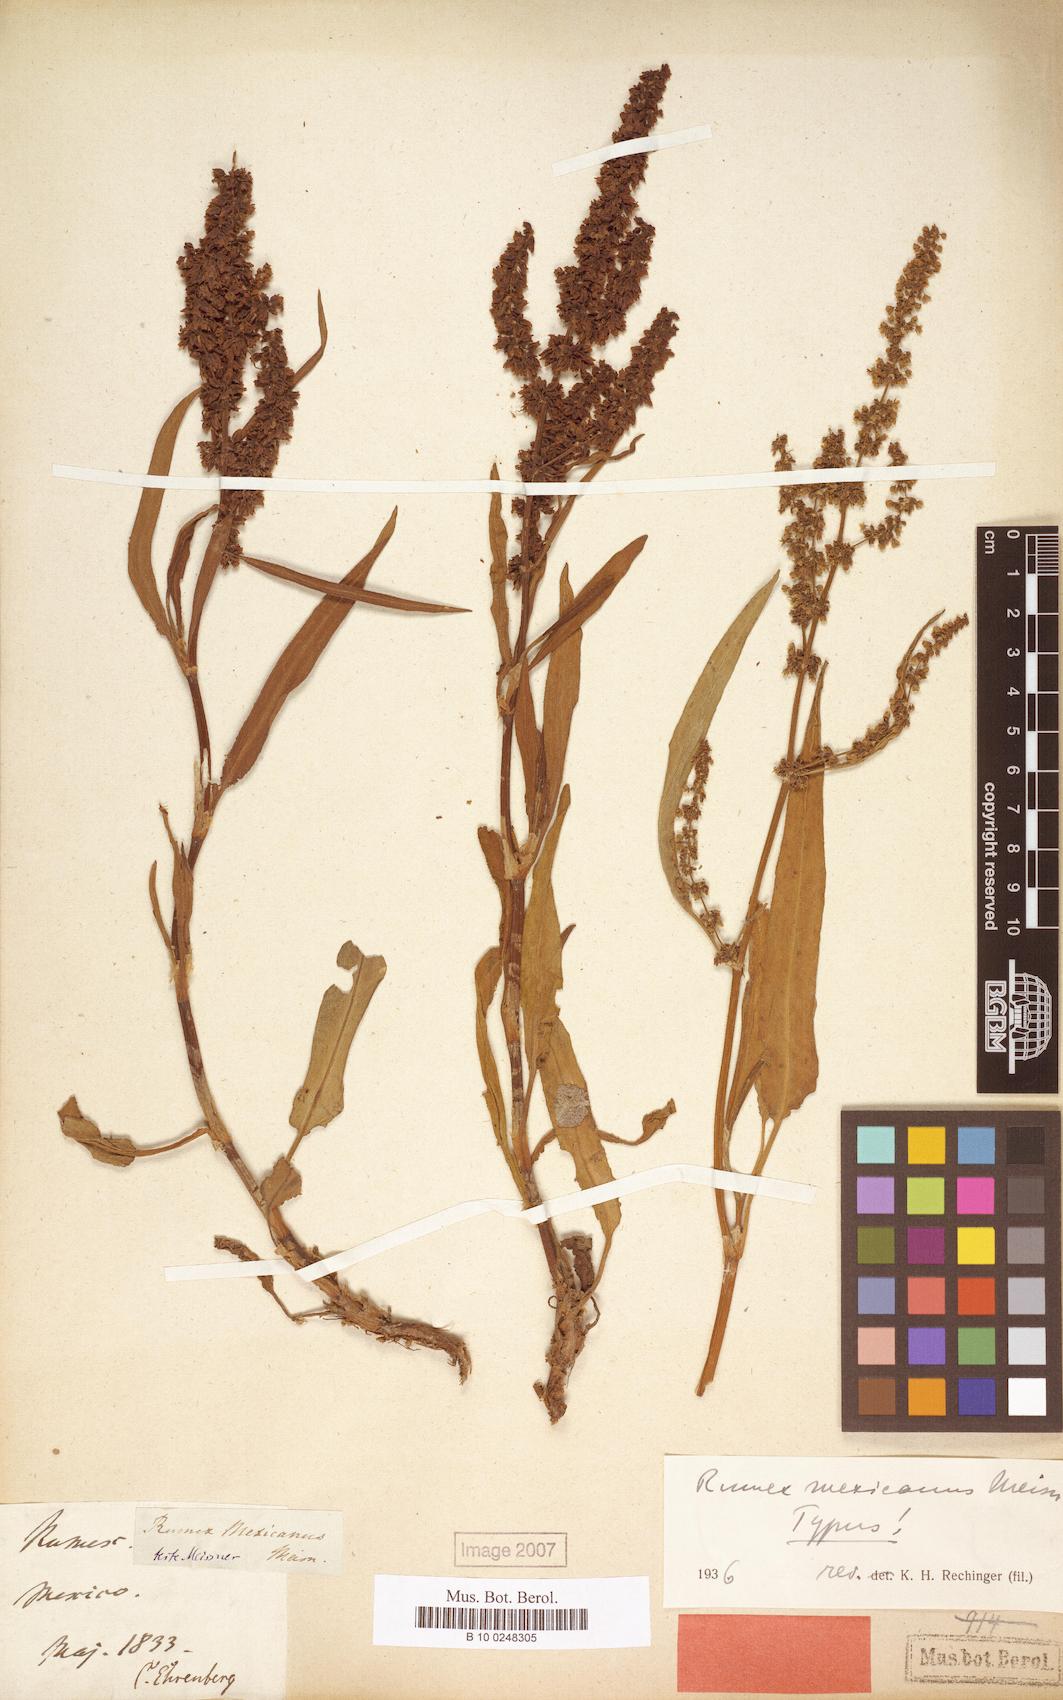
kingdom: Plantae
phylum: Tracheophyta
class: Magnoliopsida
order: Caryophyllales
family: Polygonaceae
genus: Rumex
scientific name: Rumex triangulivalvis
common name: Triangular-valve dock
